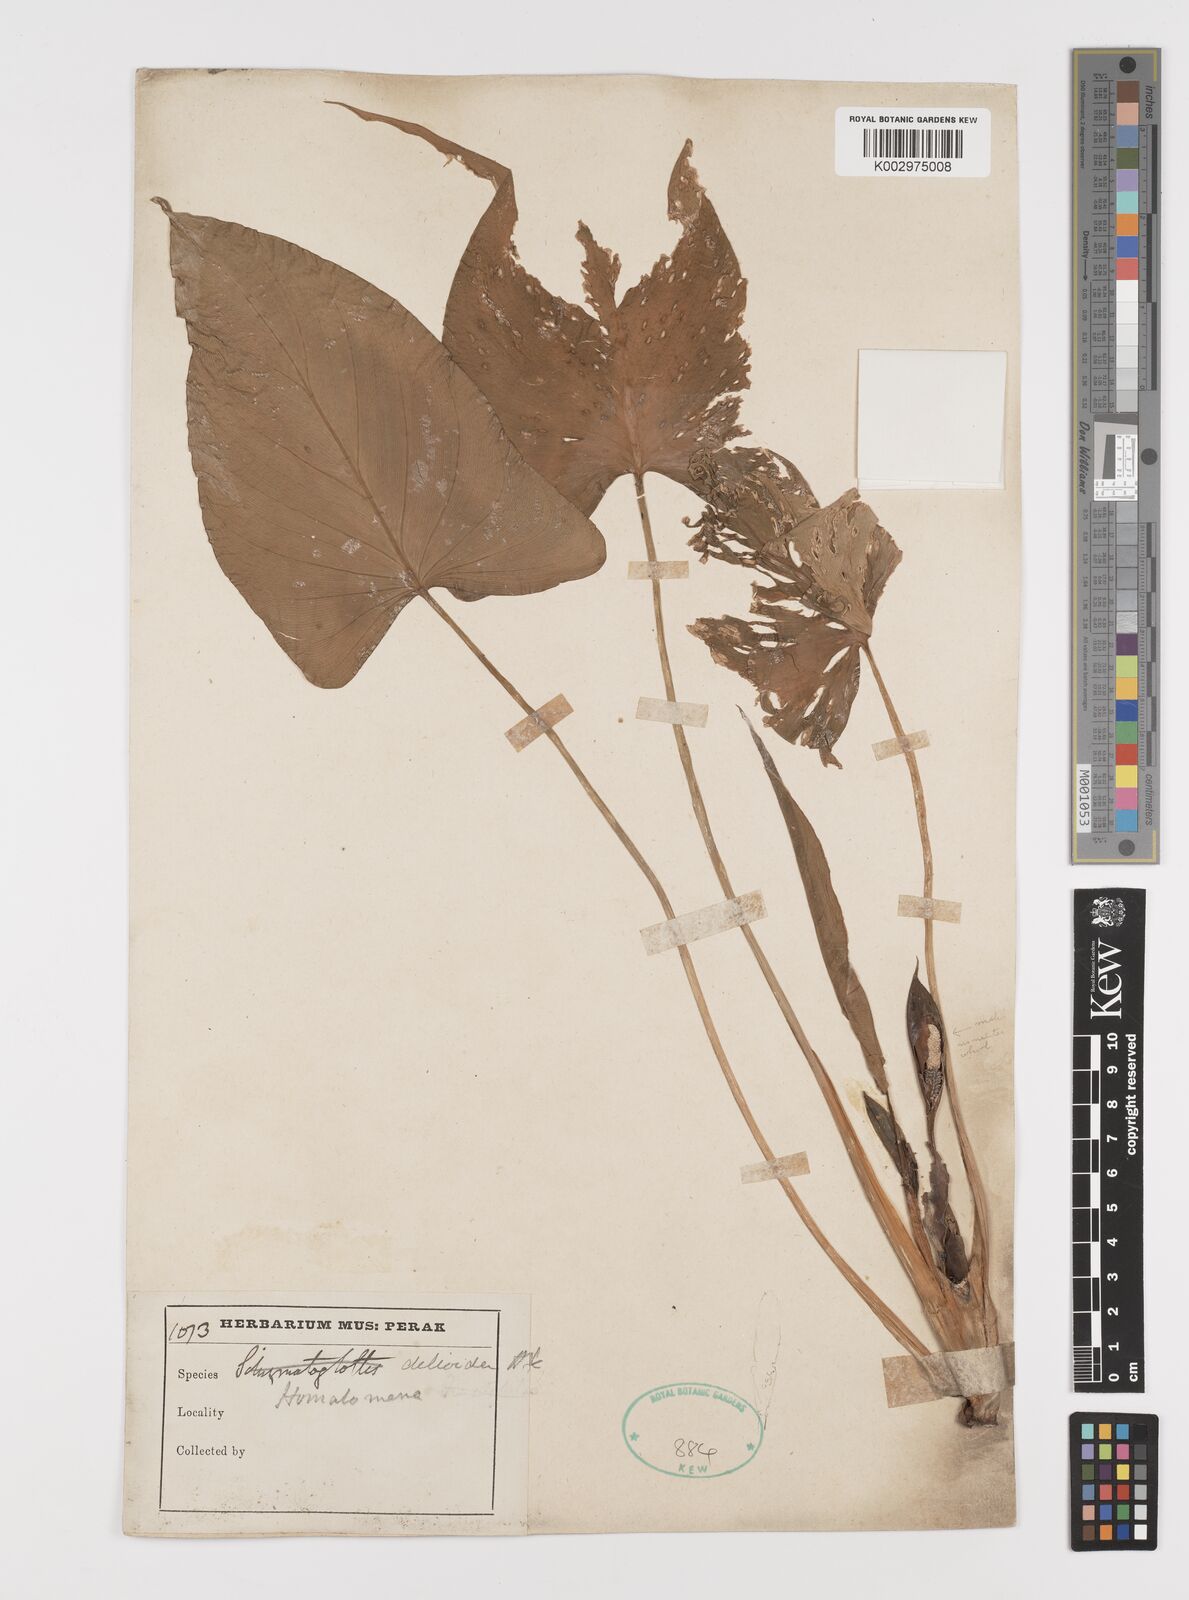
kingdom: Plantae
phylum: Tracheophyta
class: Liliopsida
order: Alismatales
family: Araceae
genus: Homalomena
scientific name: Homalomena griffithii
